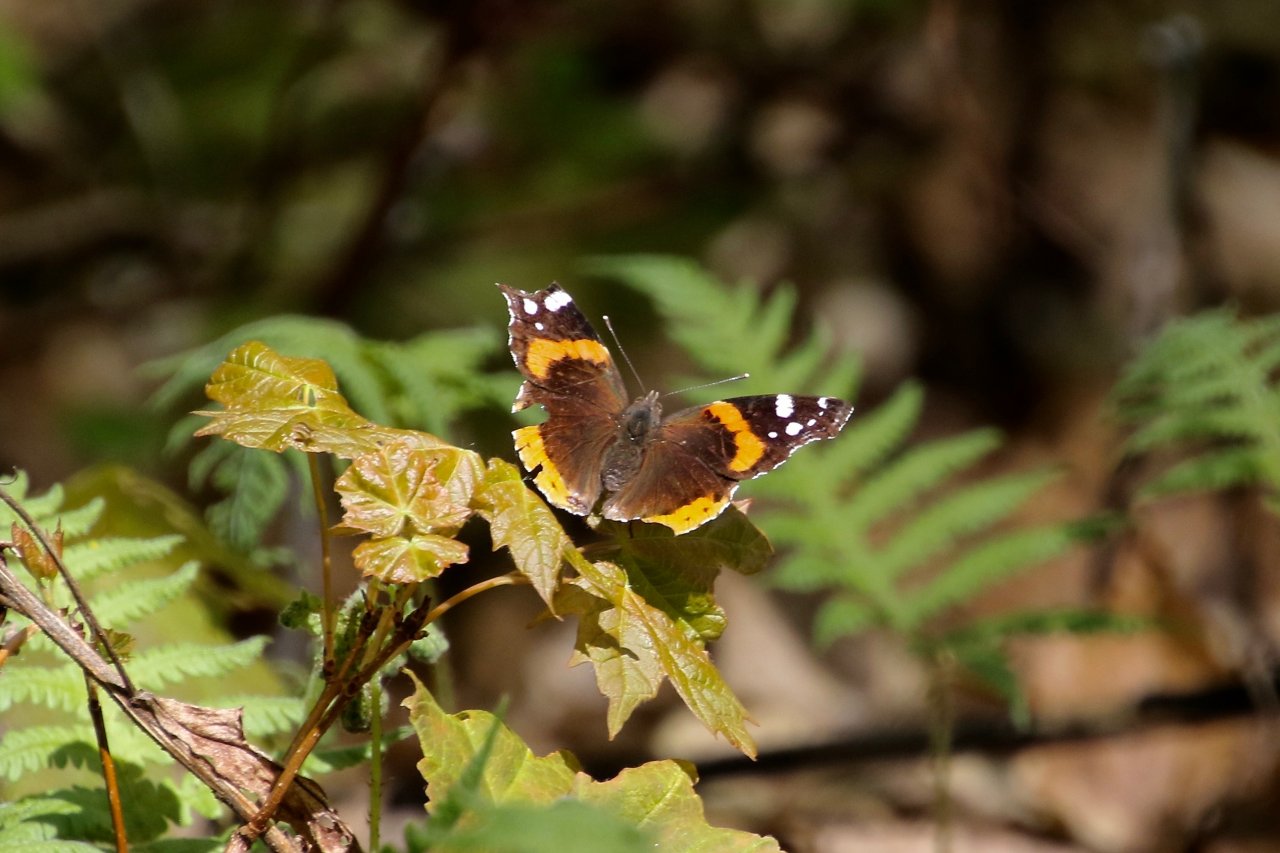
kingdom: Animalia
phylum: Arthropoda
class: Insecta
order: Lepidoptera
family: Nymphalidae
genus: Vanessa
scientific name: Vanessa atalanta
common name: Red Admiral
